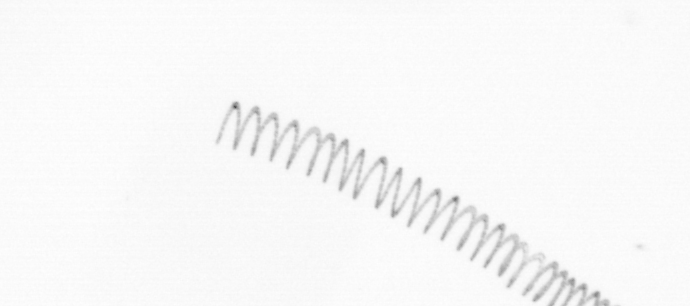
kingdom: Chromista
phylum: Ochrophyta
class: Bacillariophyceae
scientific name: Bacillariophyceae
